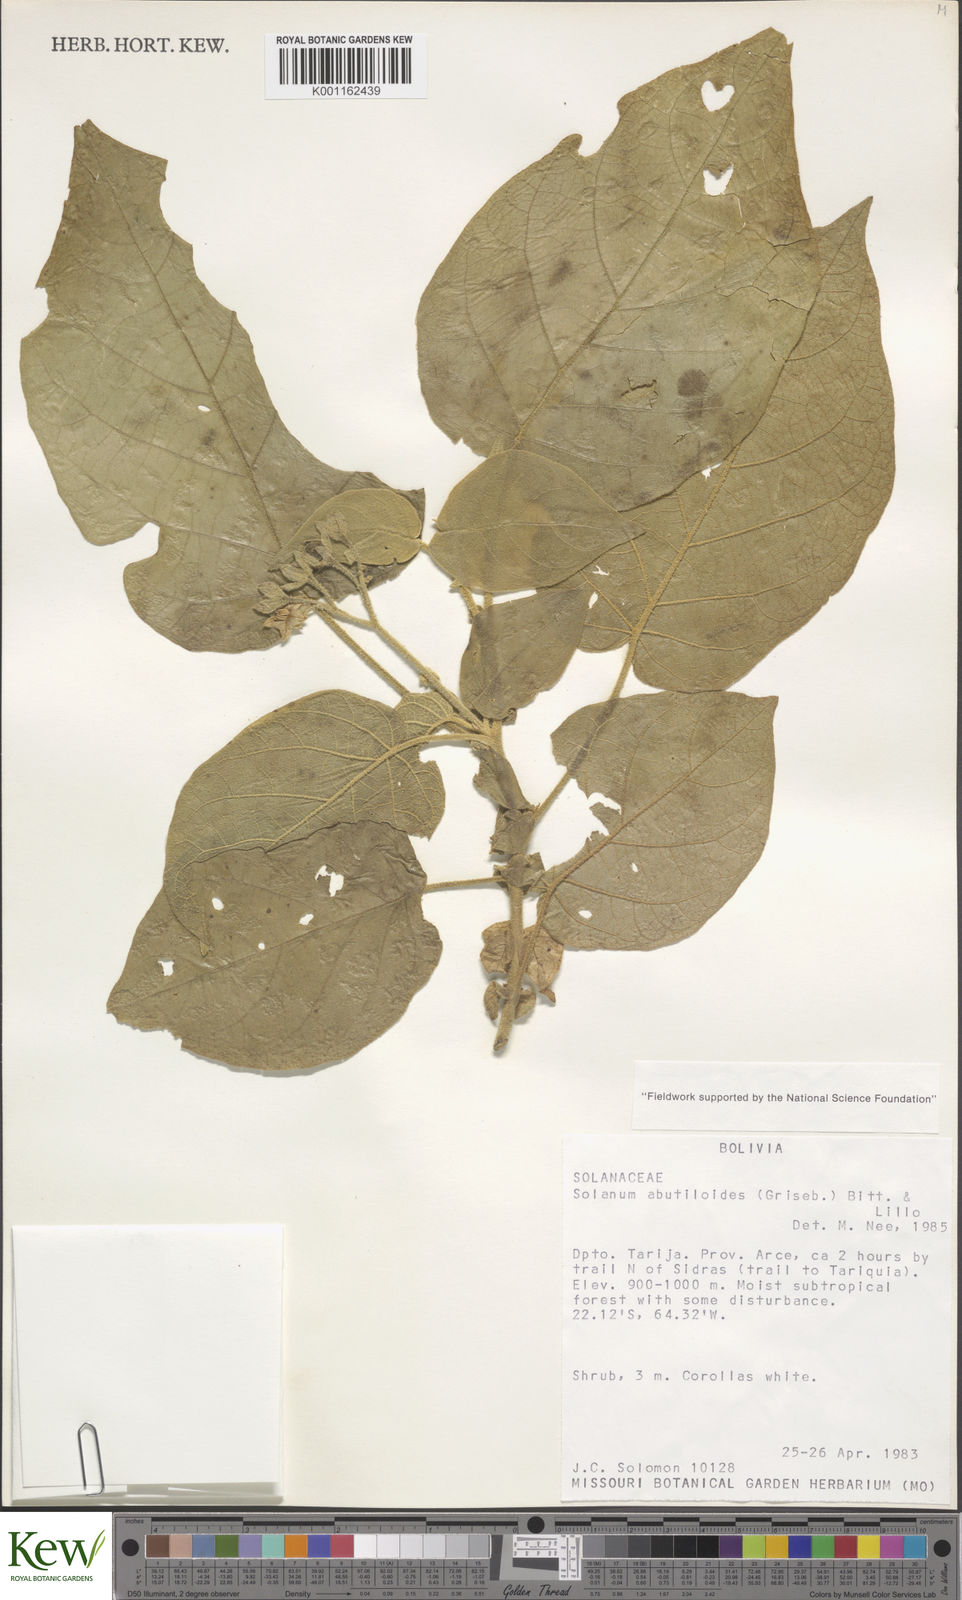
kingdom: Plantae
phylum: Tracheophyta
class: Magnoliopsida
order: Solanales
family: Solanaceae
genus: Solanum
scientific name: Solanum abutiloides
